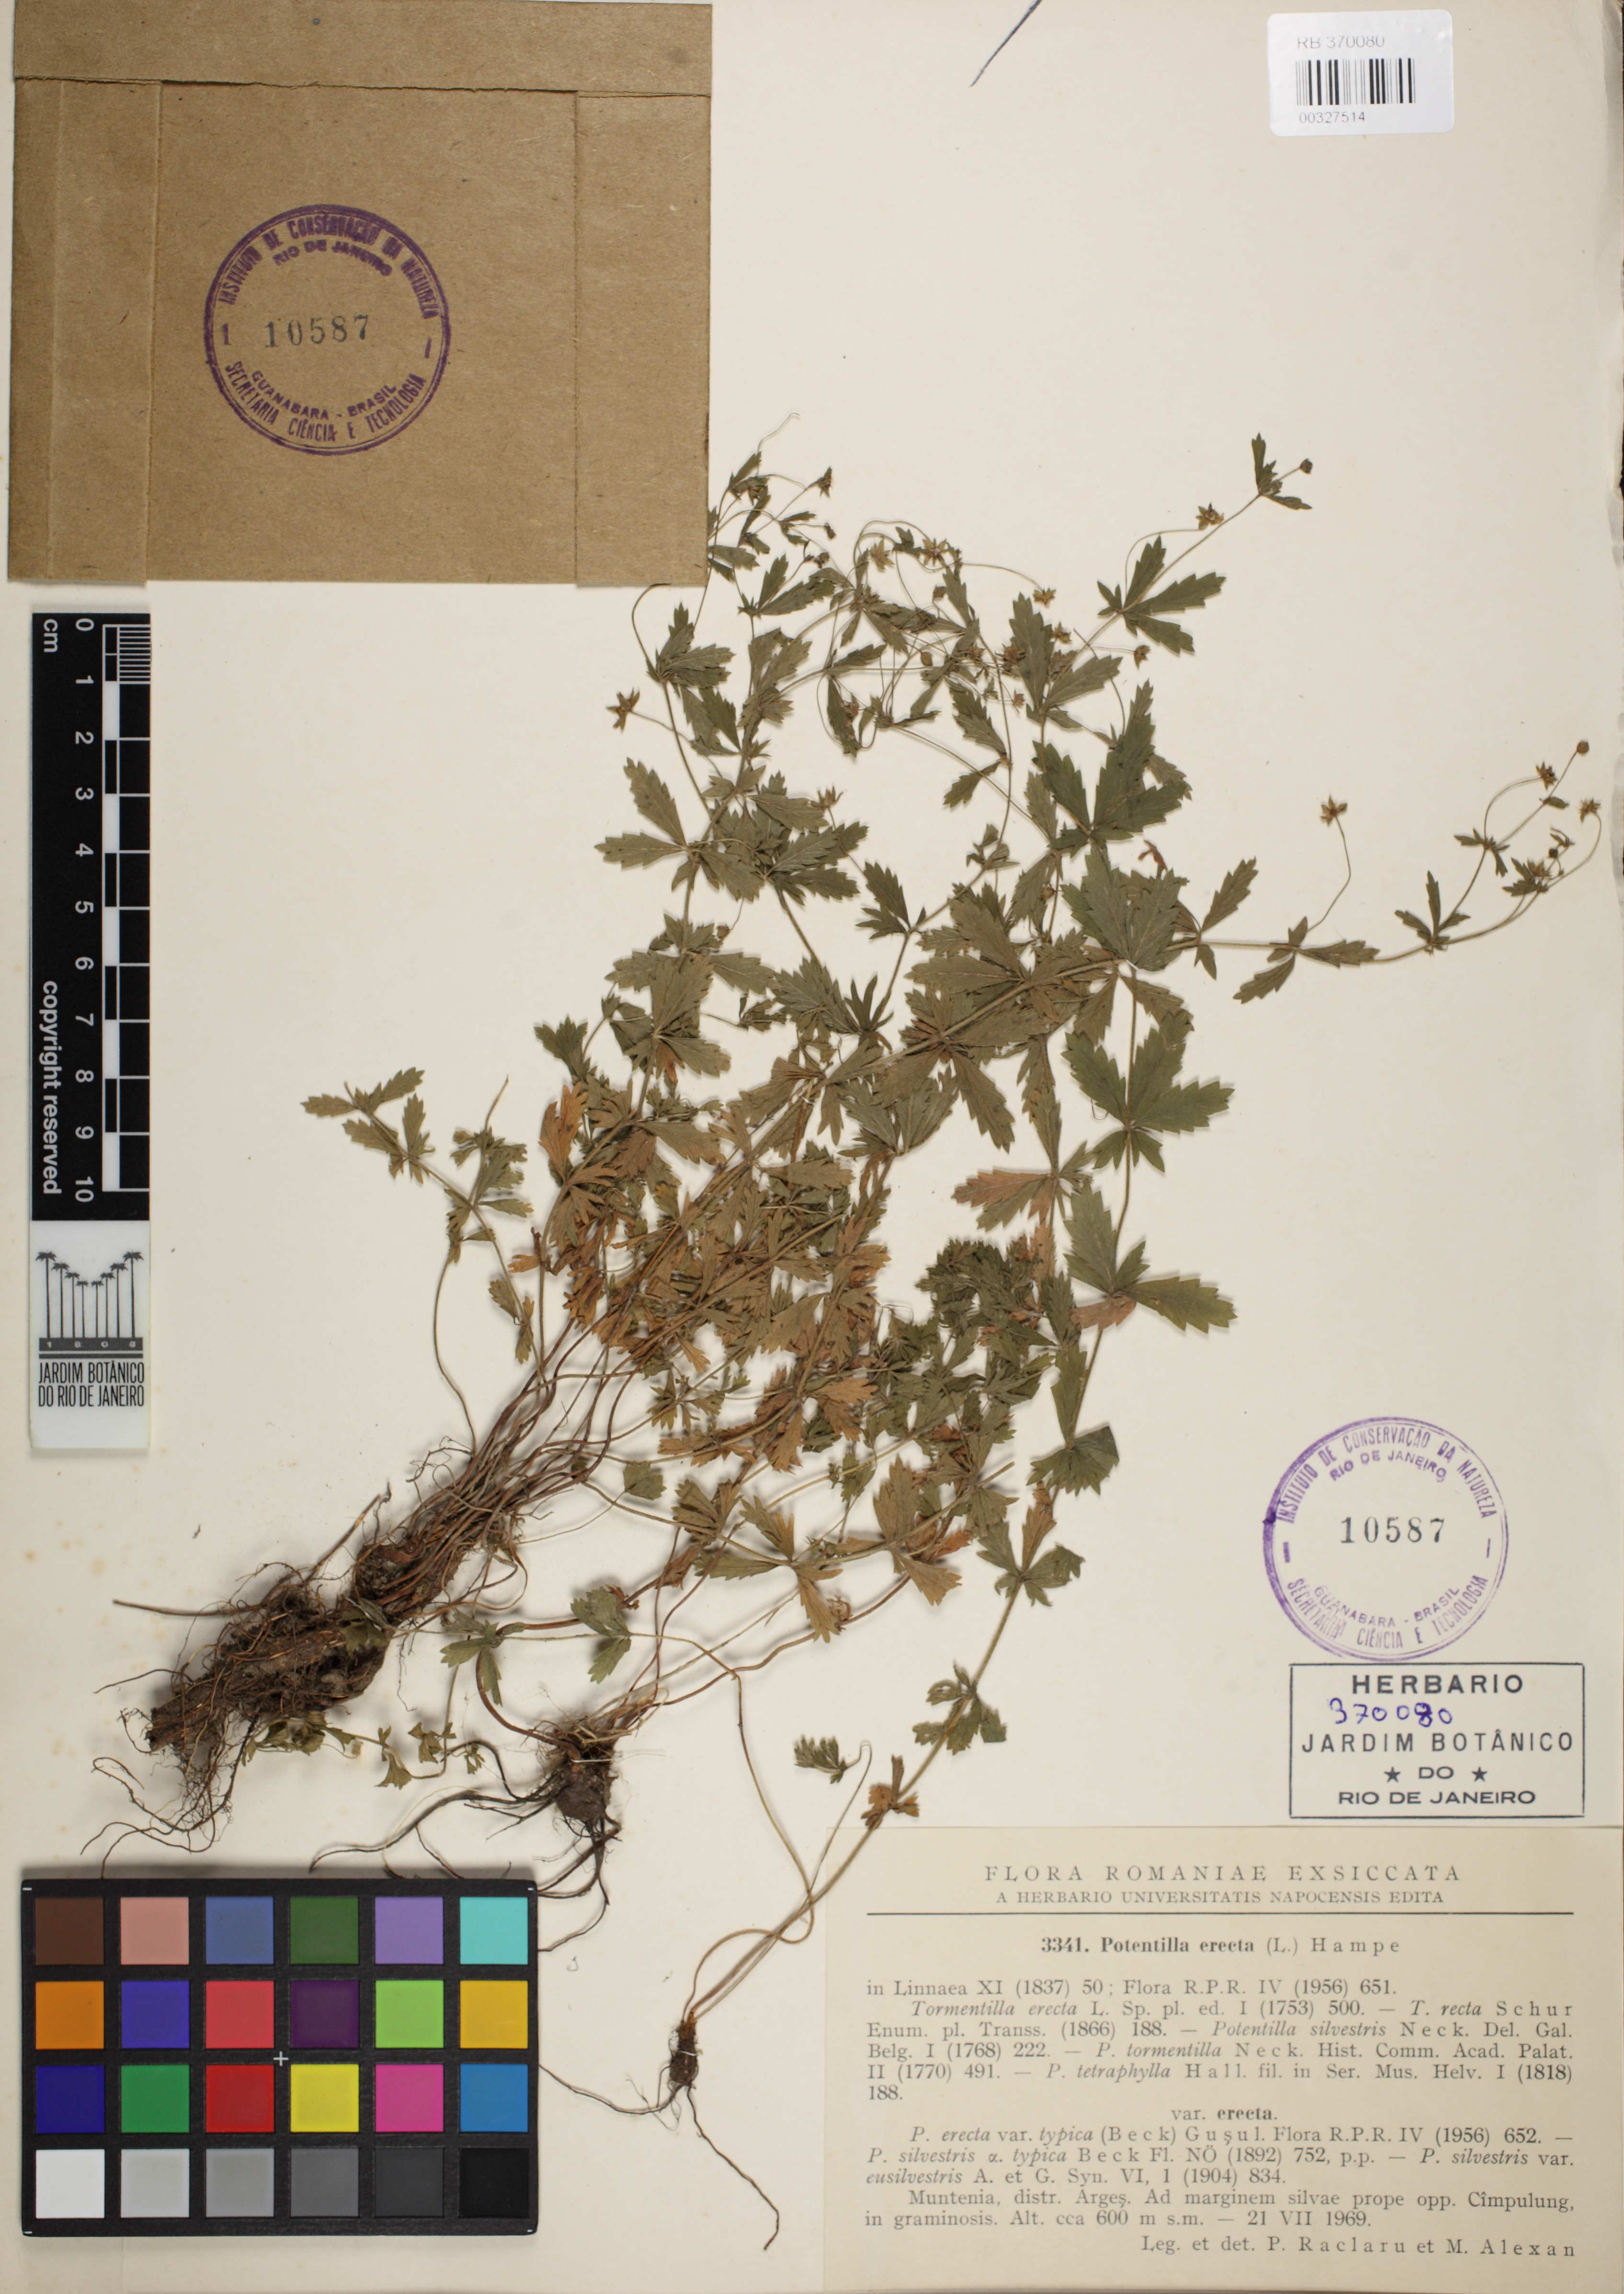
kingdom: Plantae
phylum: Tracheophyta
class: Magnoliopsida
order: Rosales
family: Rosaceae
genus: Potentilla
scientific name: Potentilla erecta
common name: Tormentil
